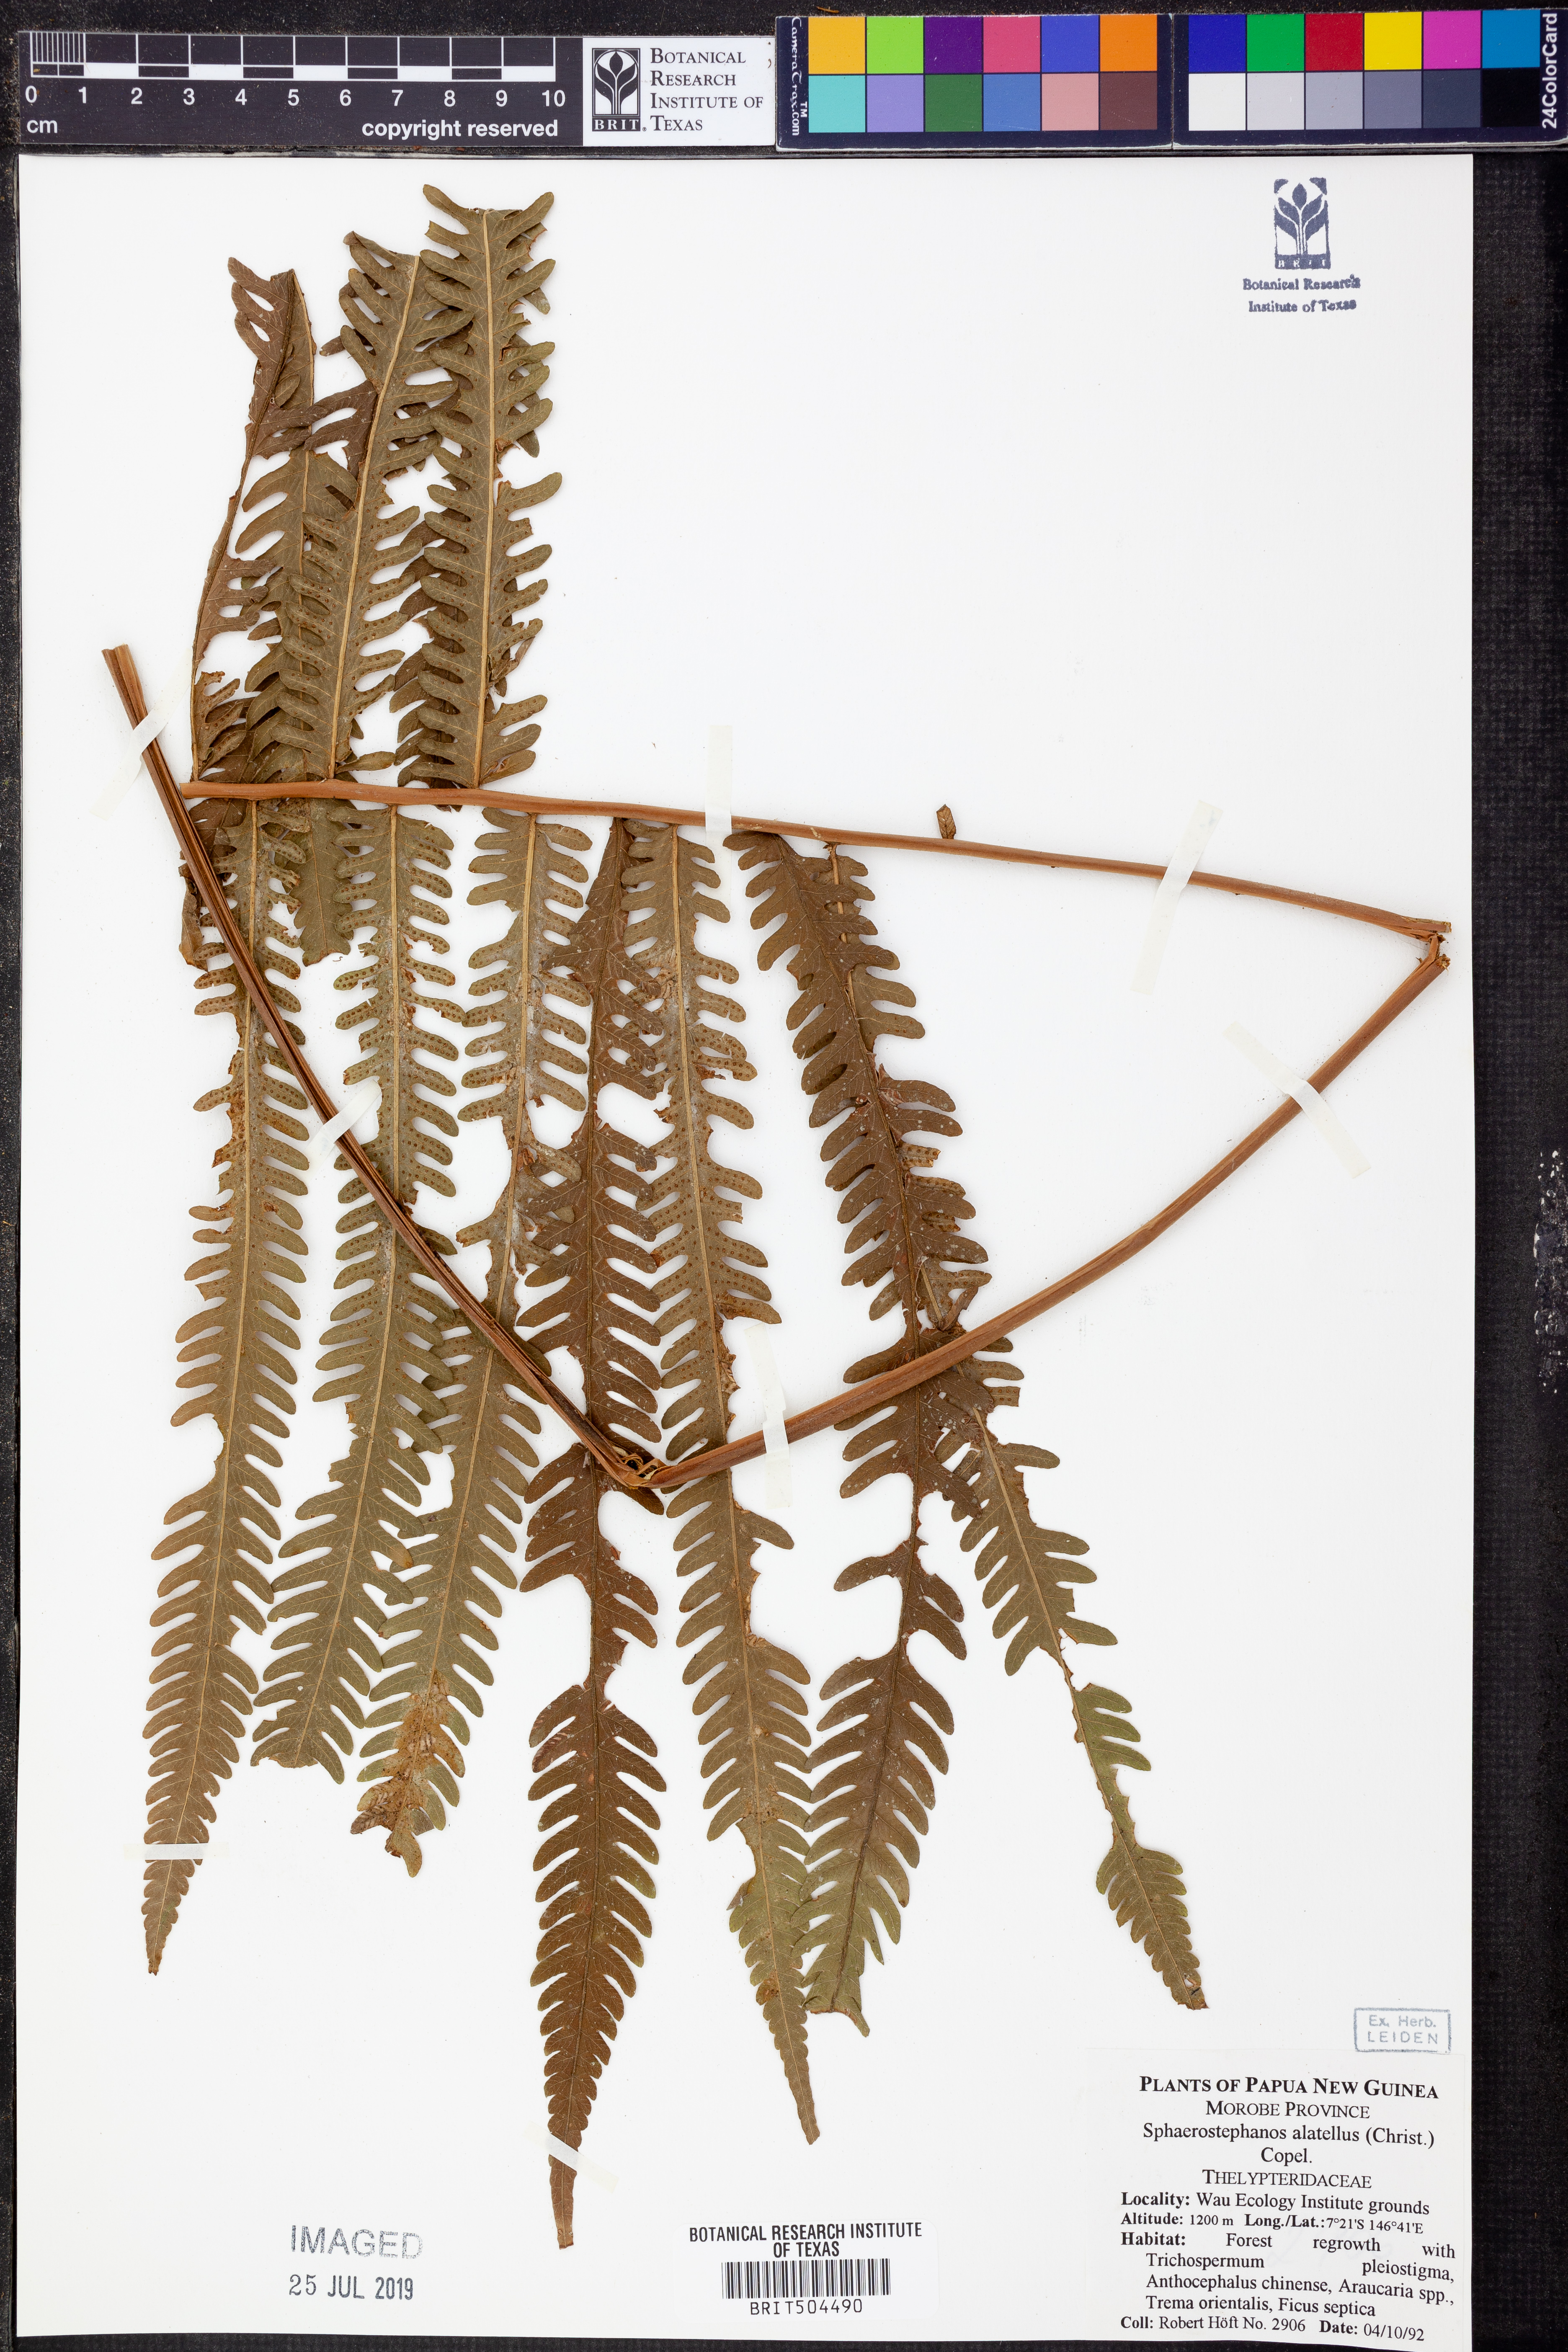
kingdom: Plantae
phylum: Tracheophyta
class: Polypodiopsida
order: Polypodiales
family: Thelypteridaceae
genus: Sphaerostephanos
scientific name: Sphaerostephanos alatellus
